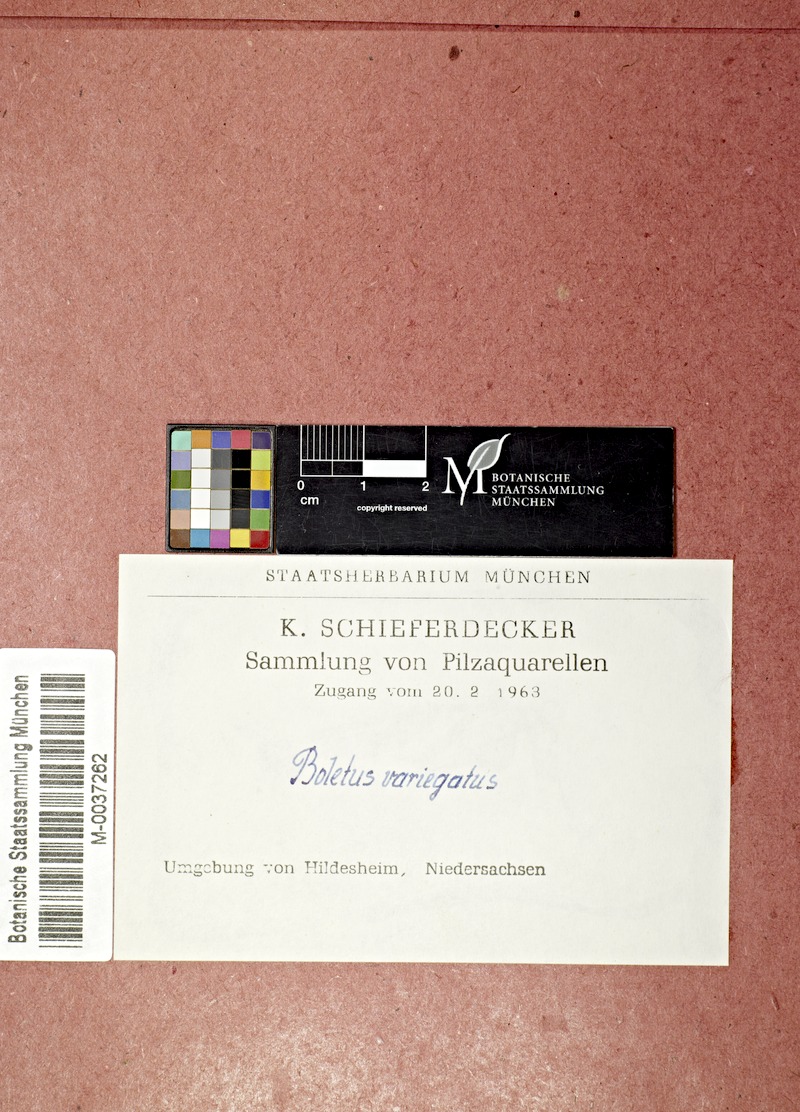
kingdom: Fungi
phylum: Basidiomycota
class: Agaricomycetes
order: Boletales
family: Suillaceae
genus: Suillus
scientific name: Suillus variegatus
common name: Velvet bolete
